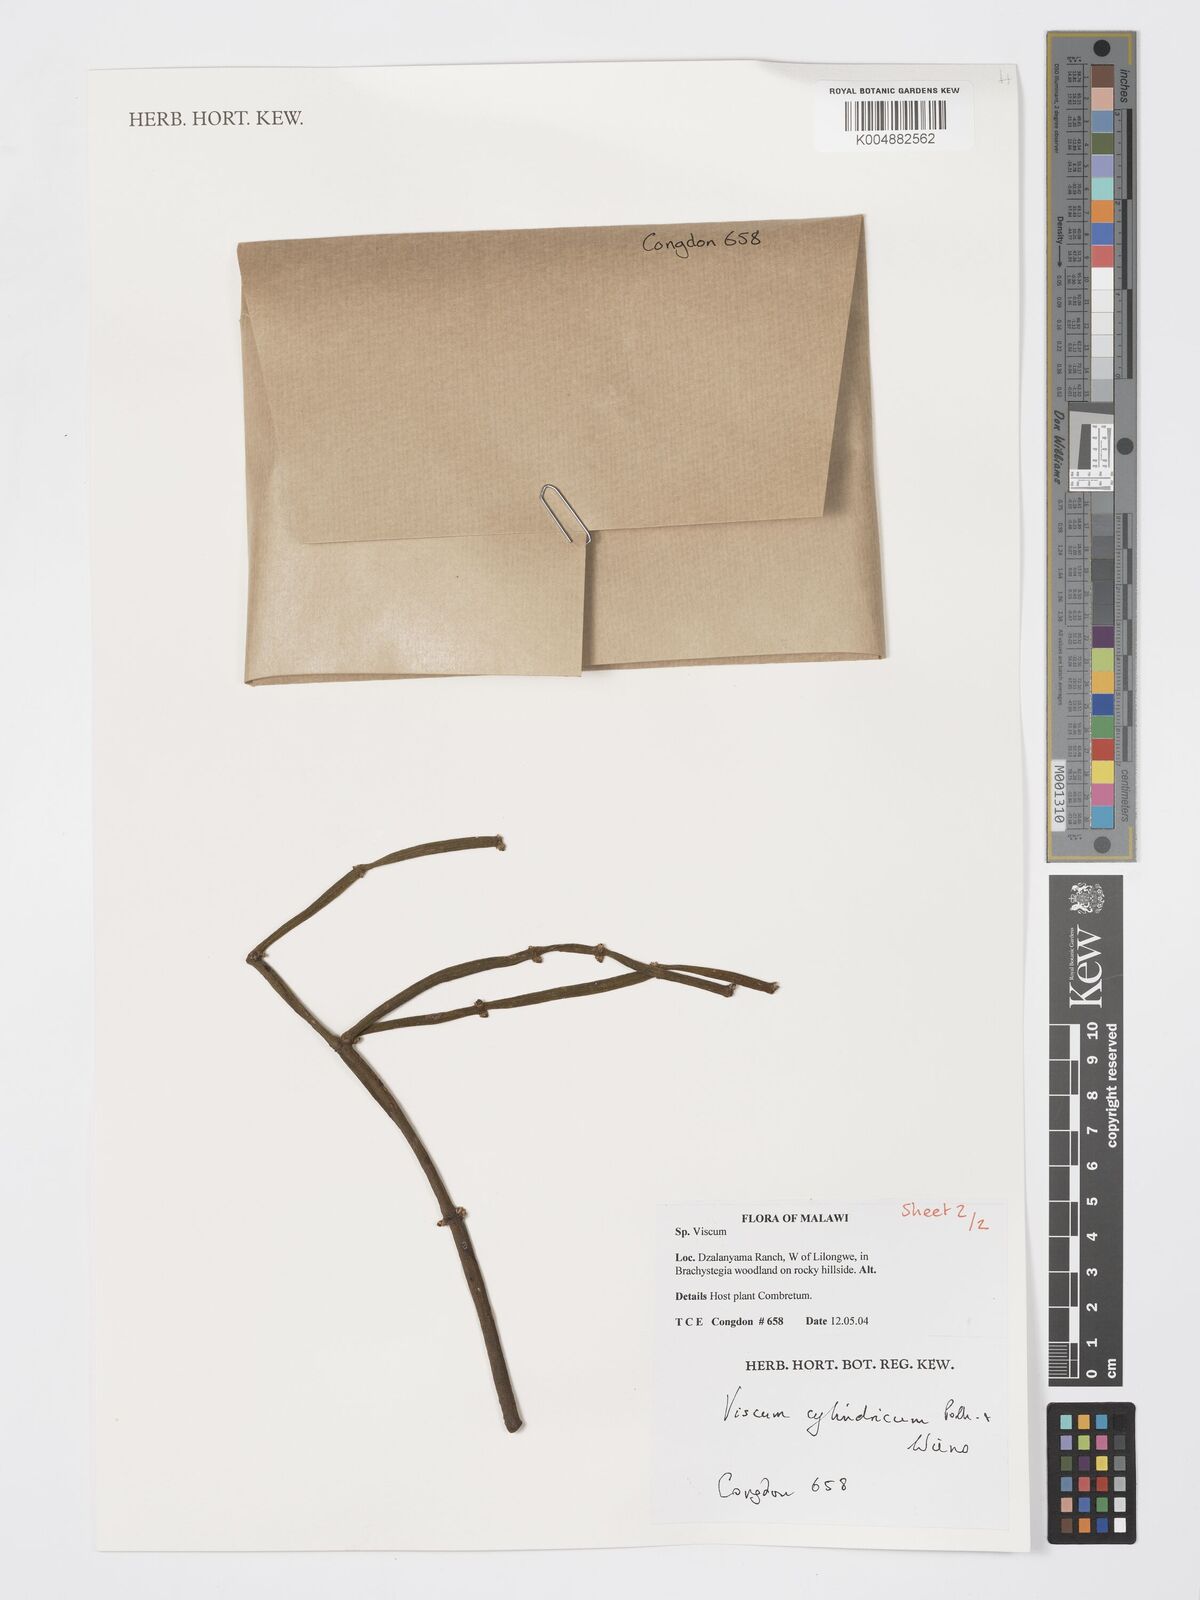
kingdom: Plantae
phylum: Tracheophyta
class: Magnoliopsida
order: Santalales
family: Viscaceae
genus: Viscum
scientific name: Viscum cylindricum
